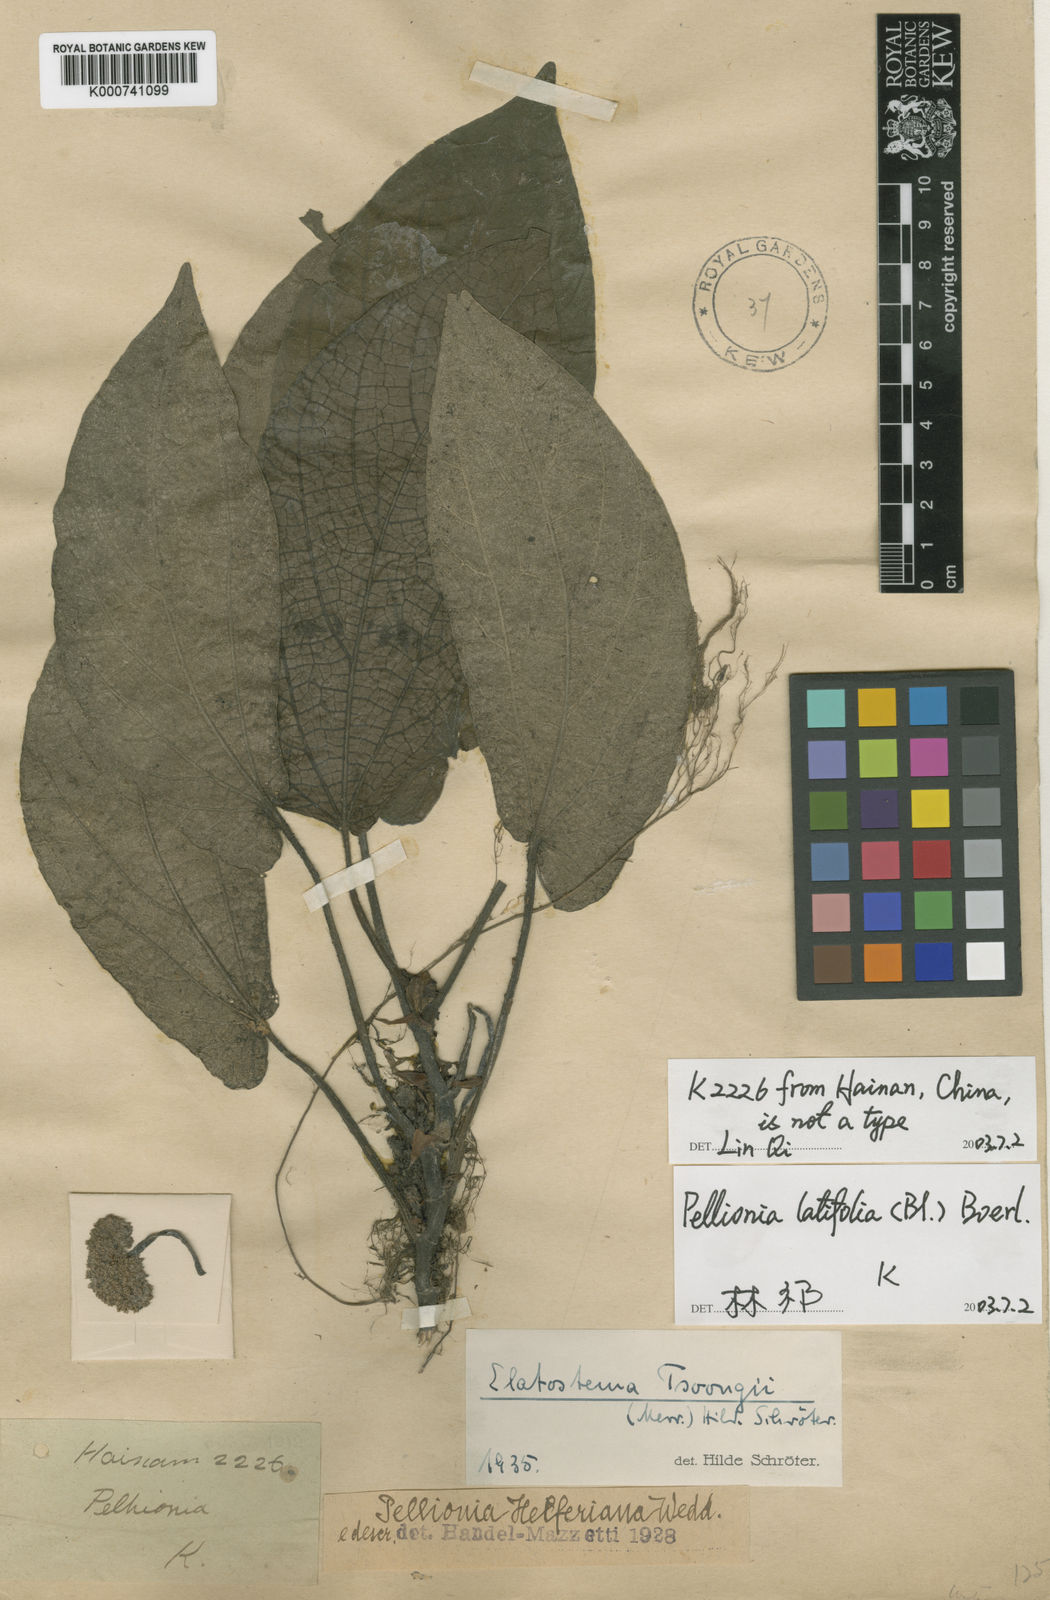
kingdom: Plantae
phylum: Tracheophyta
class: Magnoliopsida
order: Rosales
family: Urticaceae
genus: Elatostema
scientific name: Elatostema latifolium
